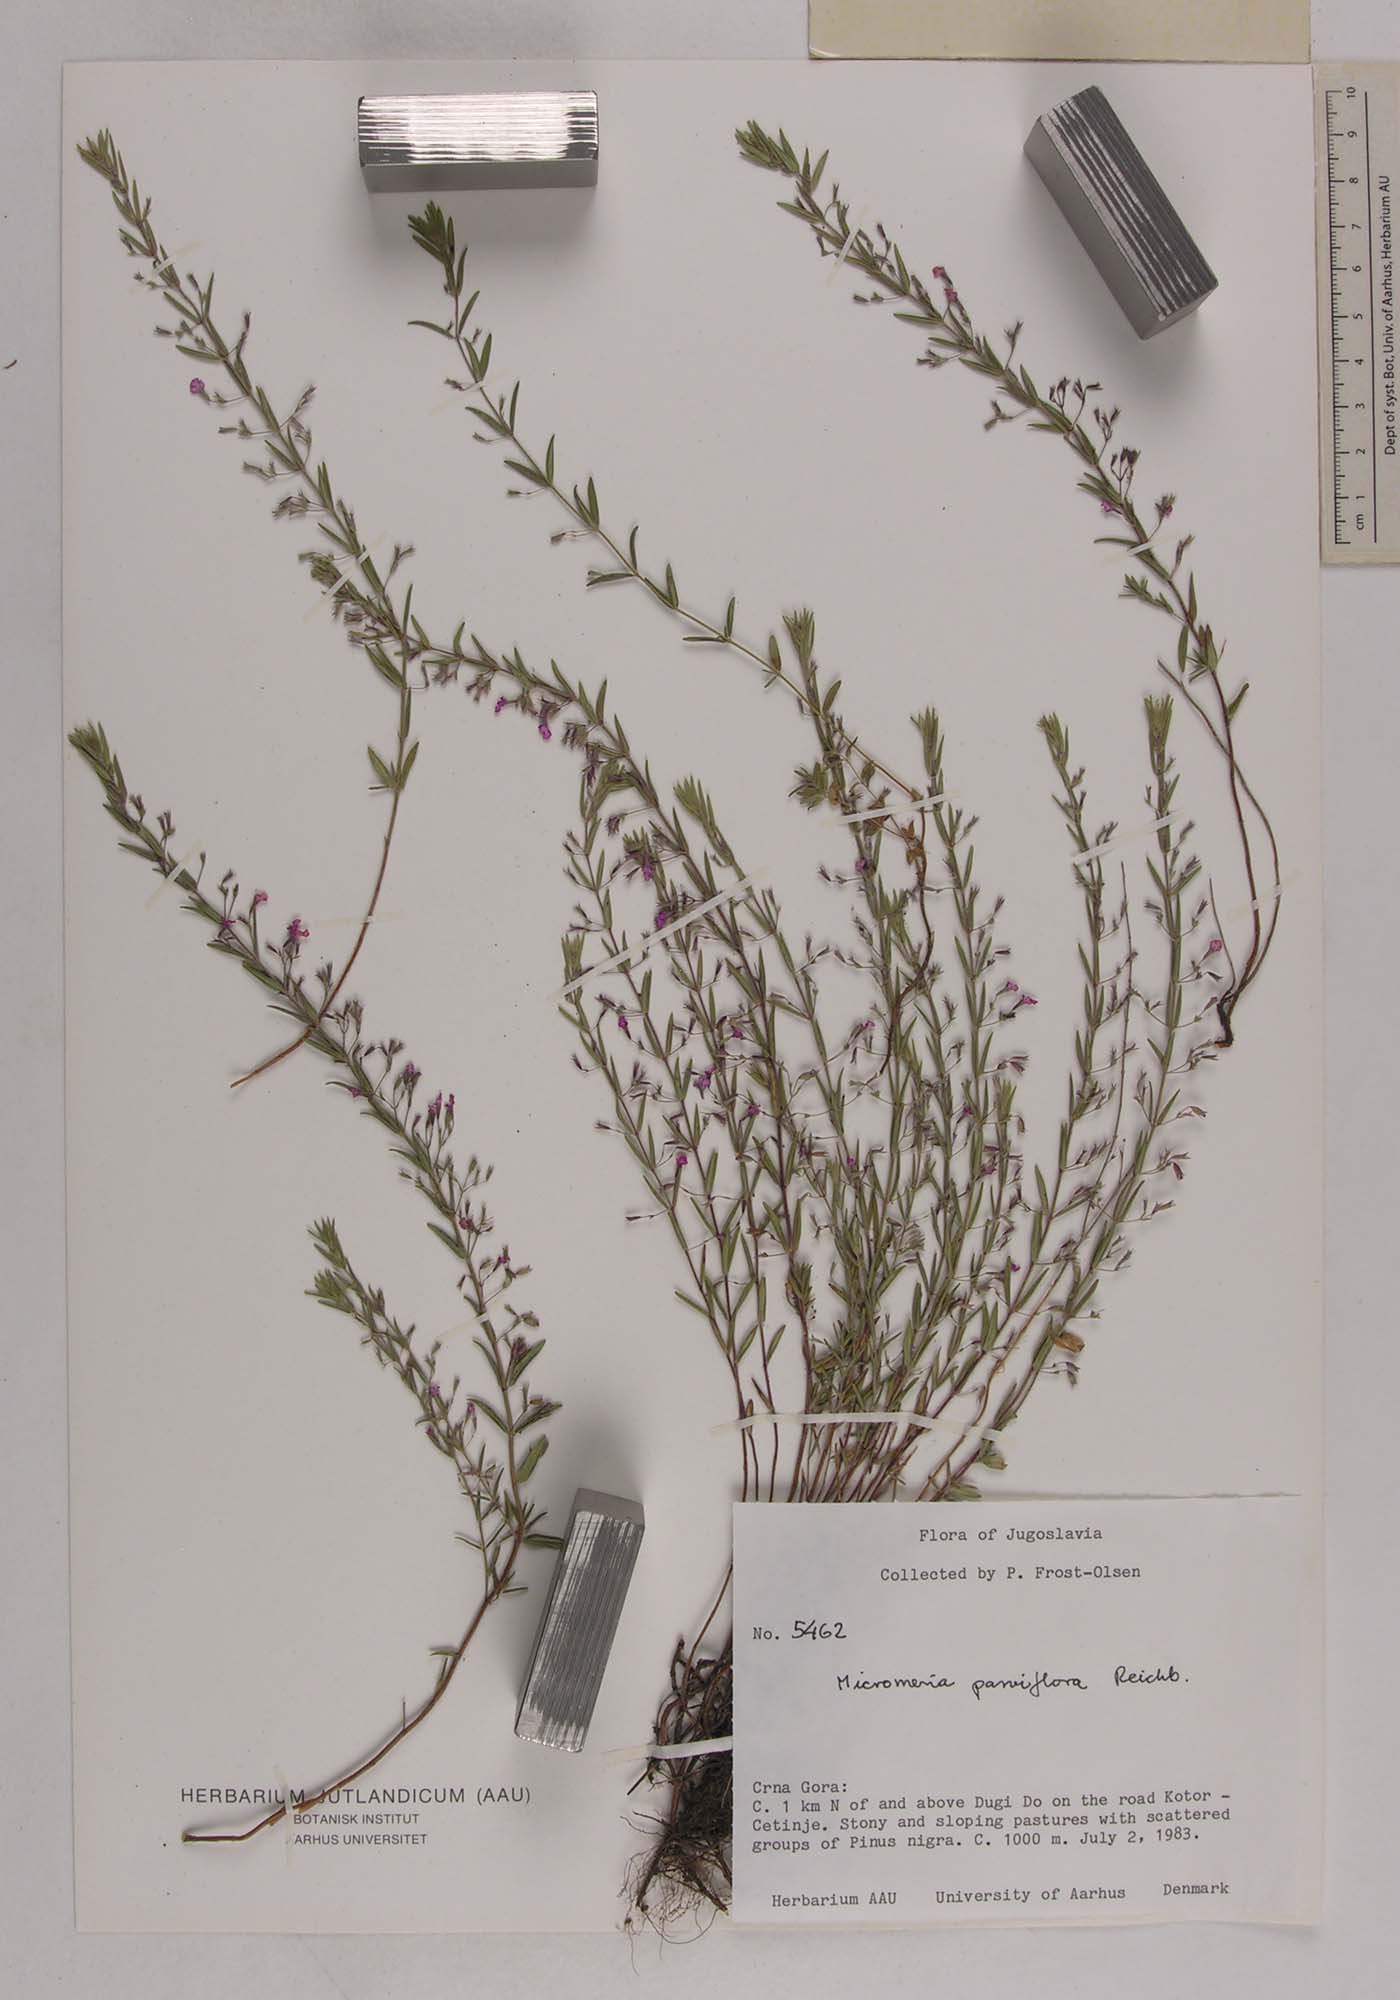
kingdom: Plantae
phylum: Tracheophyta
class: Magnoliopsida
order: Lamiales
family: Lamiaceae
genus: Micromeria
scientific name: Micromeria longipedunculata
